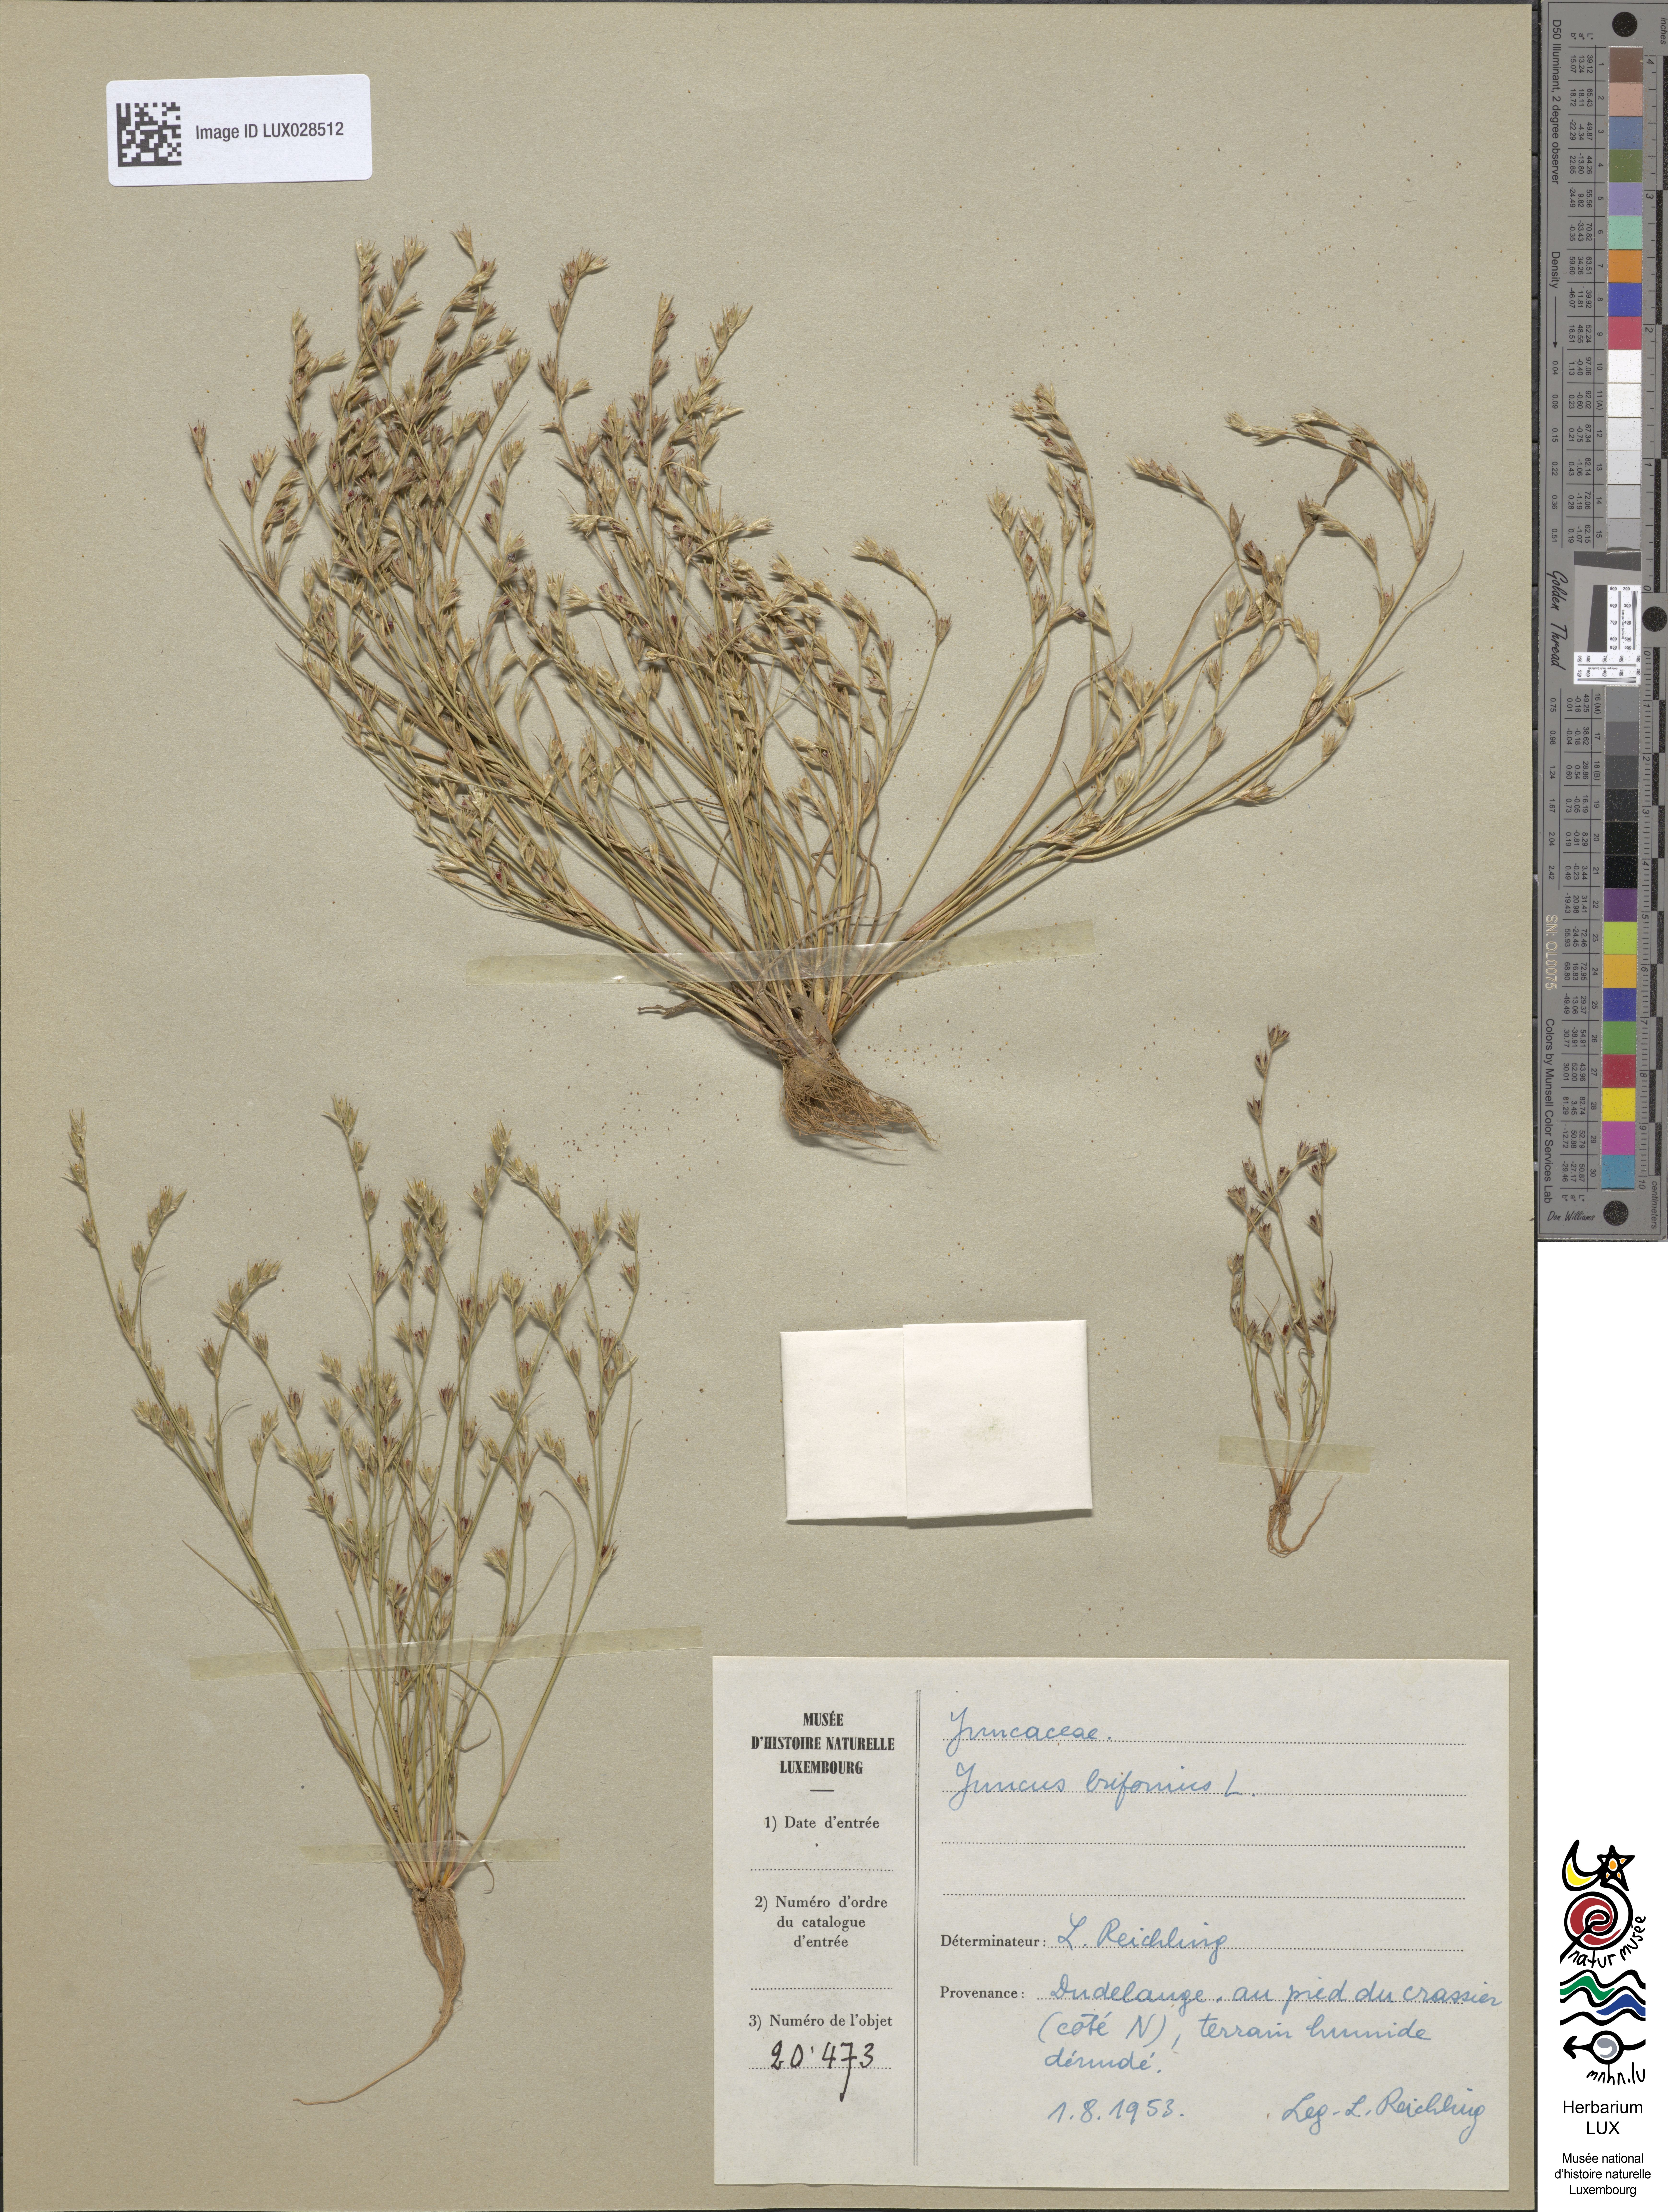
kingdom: Plantae
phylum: Tracheophyta
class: Liliopsida
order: Poales
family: Juncaceae
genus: Juncus
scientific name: Juncus bufonius
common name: Toad rush
